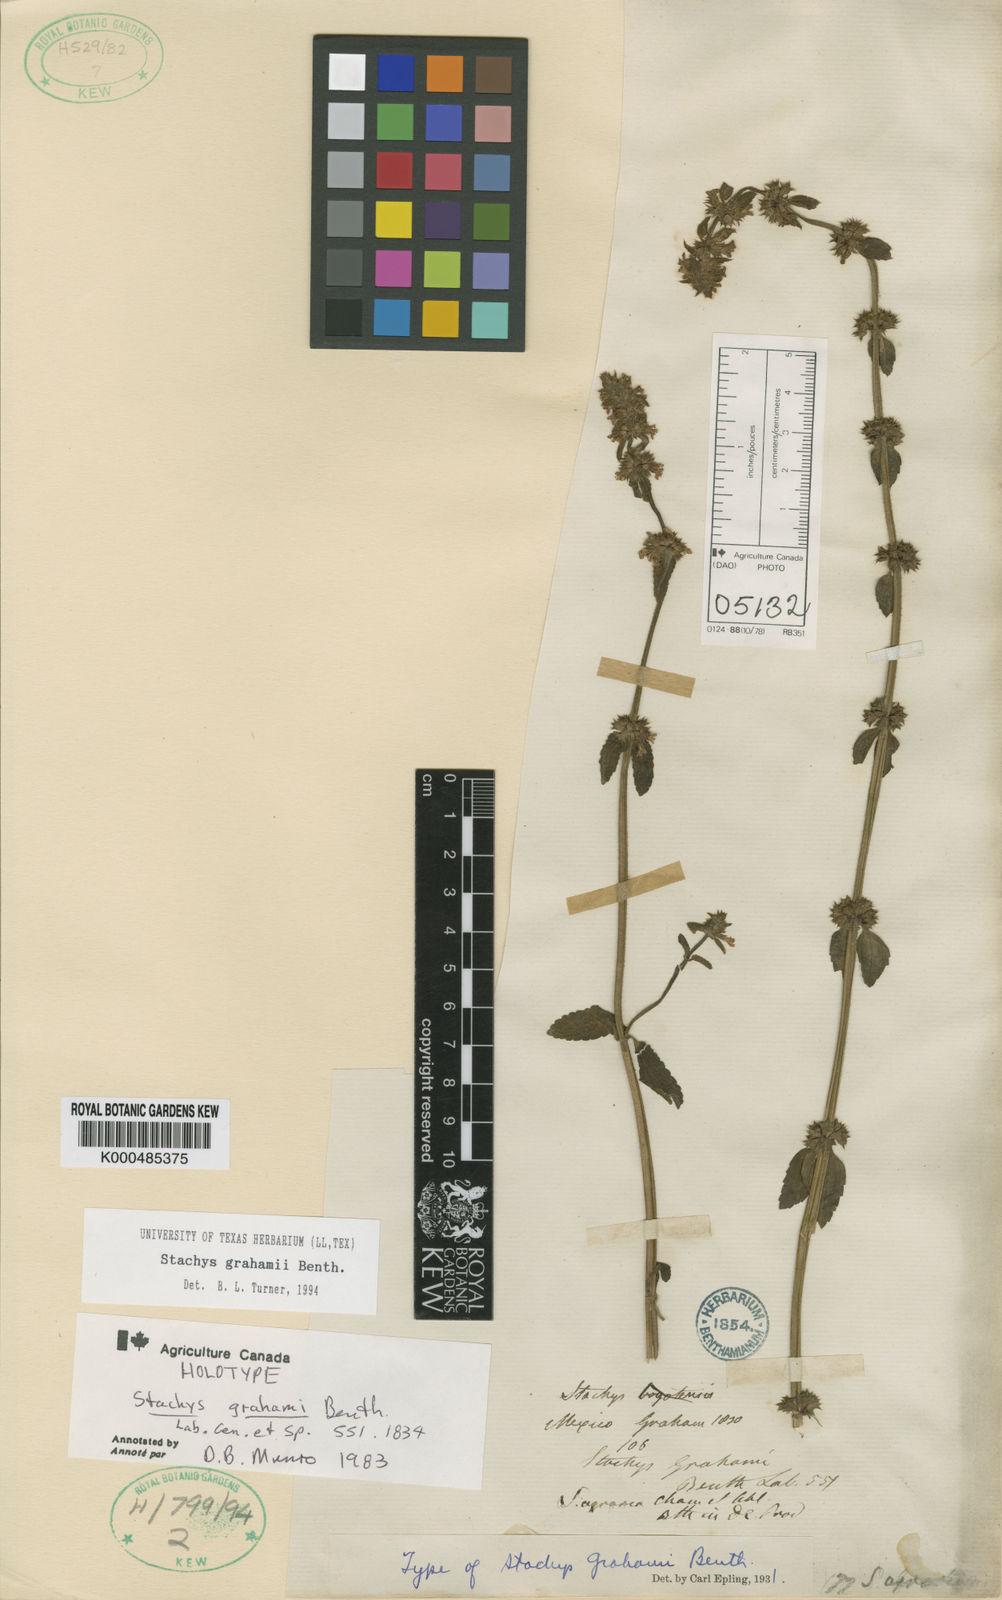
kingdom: Plantae
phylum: Tracheophyta
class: Magnoliopsida
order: Lamiales
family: Lamiaceae
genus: Stachys
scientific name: Stachys biflora
